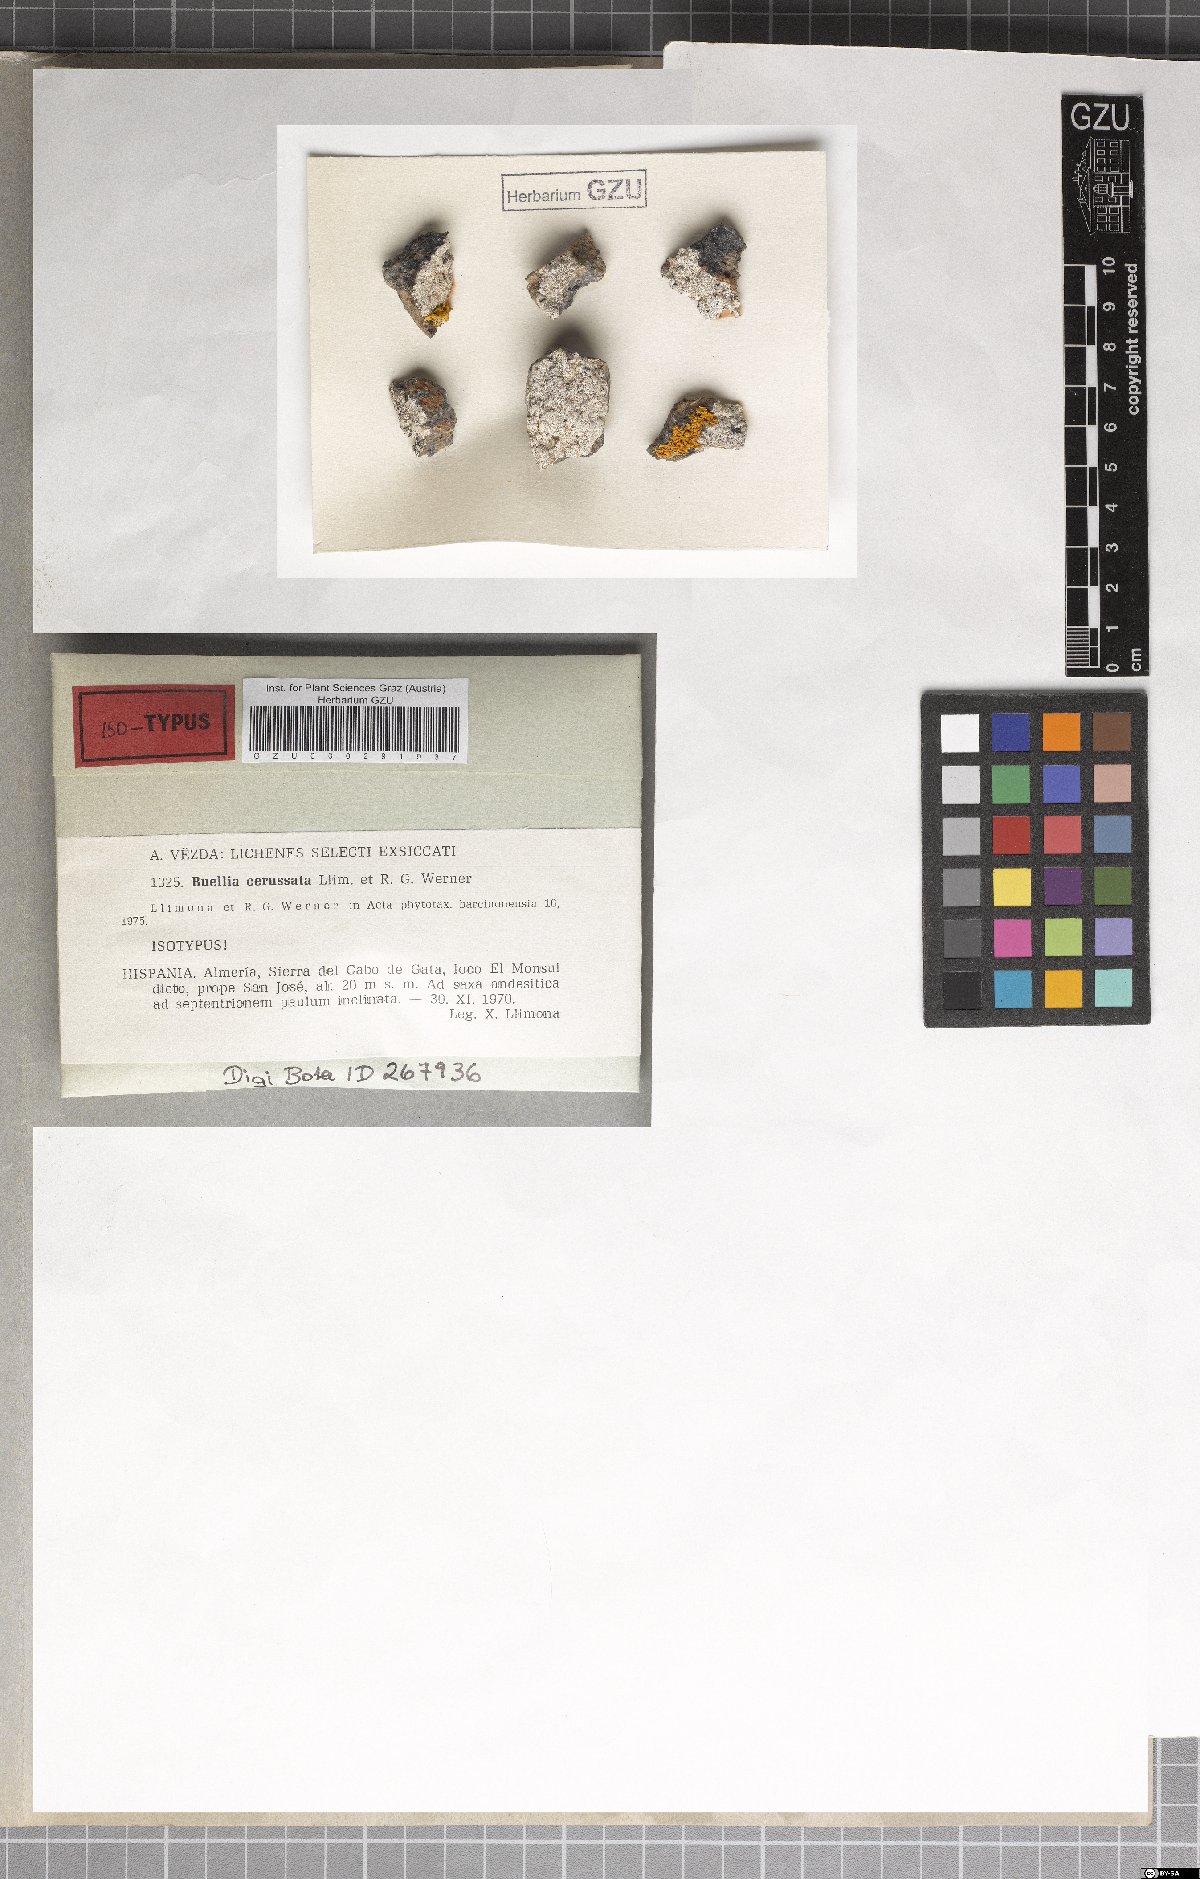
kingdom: Fungi
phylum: Ascomycota
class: Lecanoromycetes
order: Caliciales
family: Caliciaceae
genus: Buellia
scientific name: Buellia fimbriata
